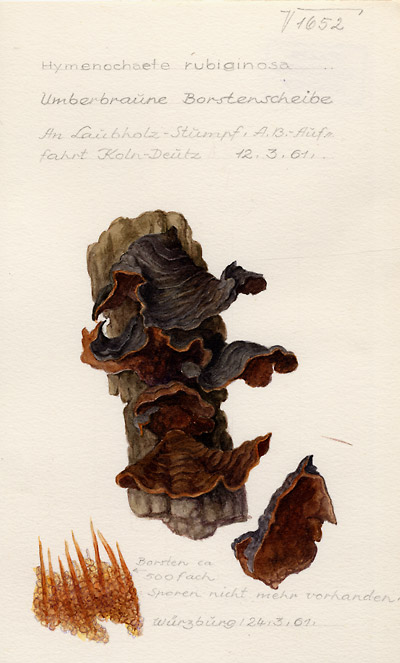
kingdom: Fungi
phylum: Basidiomycota
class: Agaricomycetes
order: Hymenochaetales
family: Hymenochaetaceae
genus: Hymenochaete
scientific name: Hymenochaete rubiginosa
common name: Oak curtain crust
